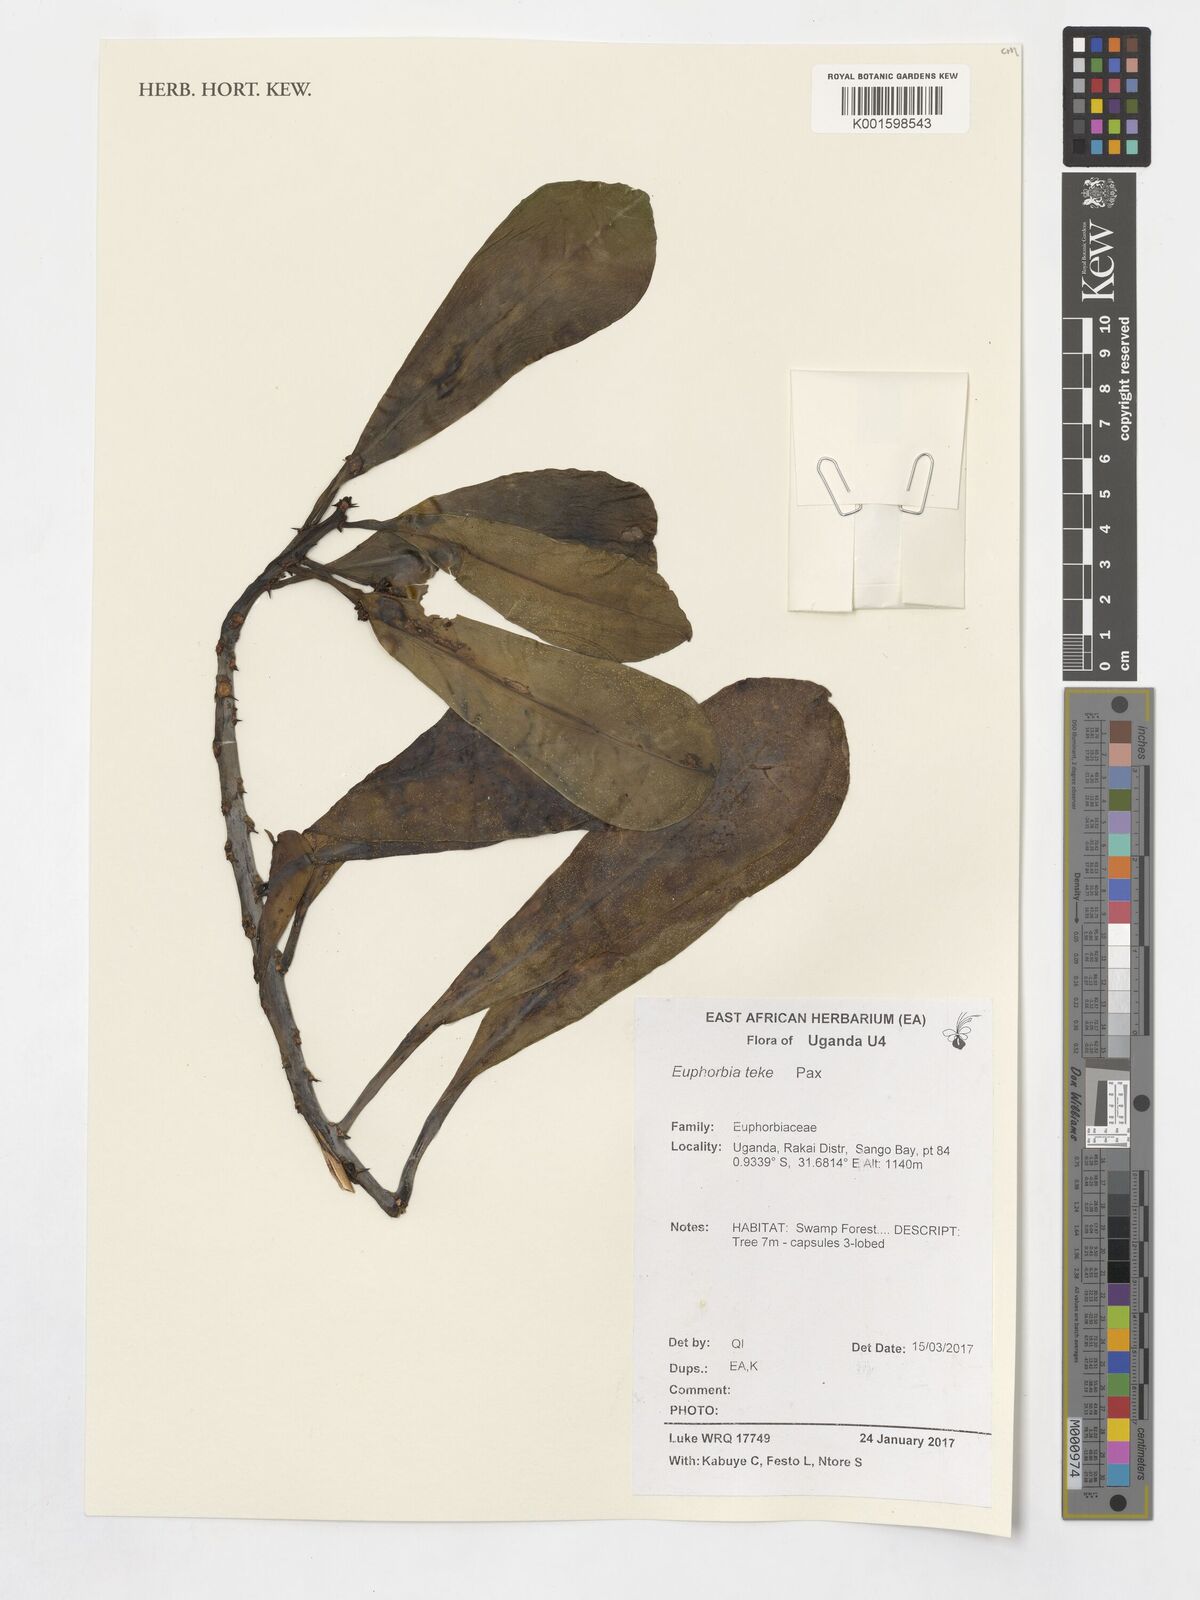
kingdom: Plantae
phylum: Tracheophyta
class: Magnoliopsida
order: Malpighiales
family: Euphorbiaceae
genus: Euphorbia
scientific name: Euphorbia teke
